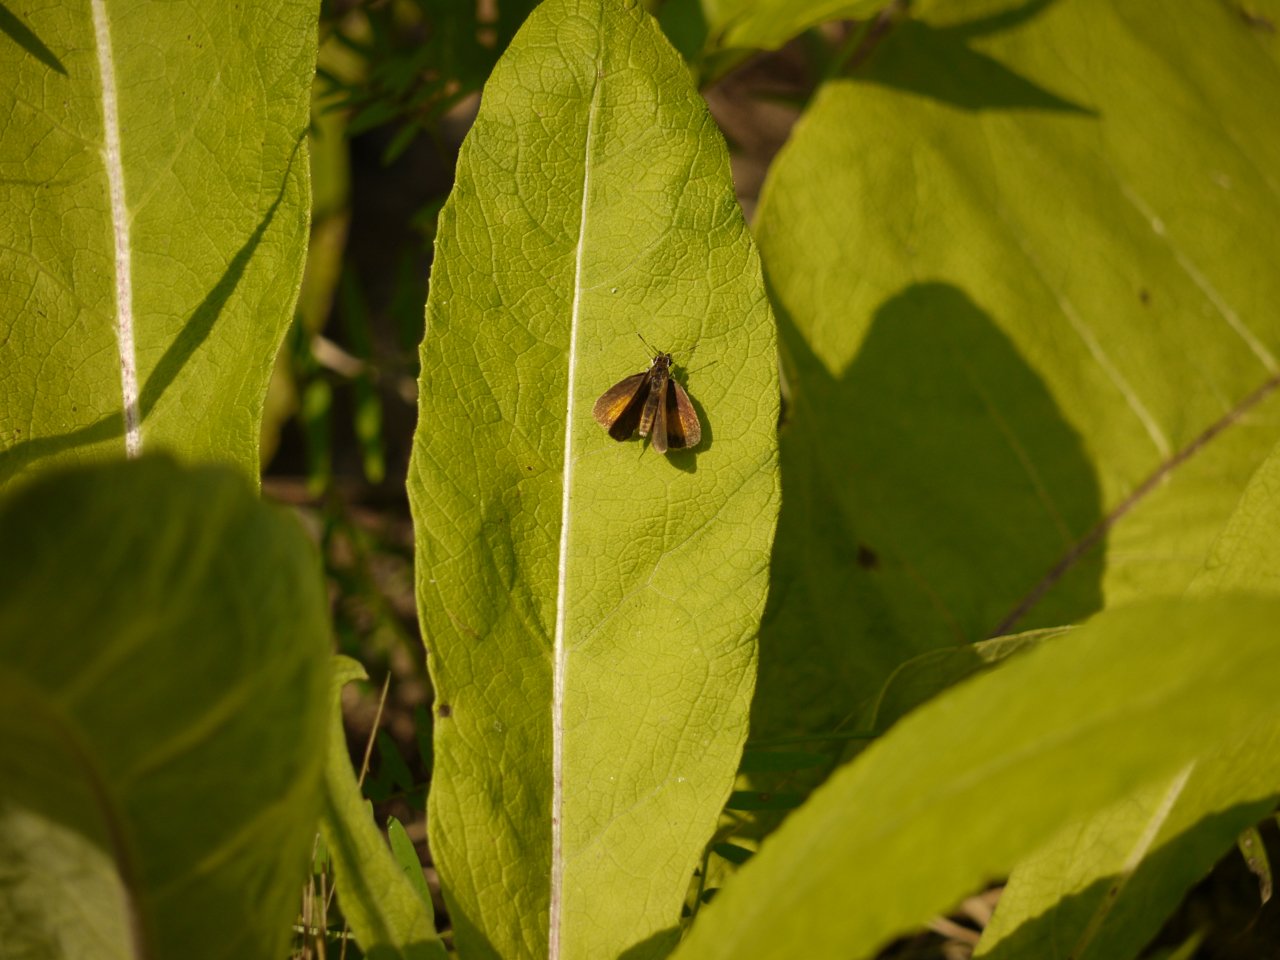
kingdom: Animalia
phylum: Arthropoda
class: Insecta
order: Lepidoptera
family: Hesperiidae
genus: Ancyloxypha
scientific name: Ancyloxypha numitor
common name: Least Skipper
